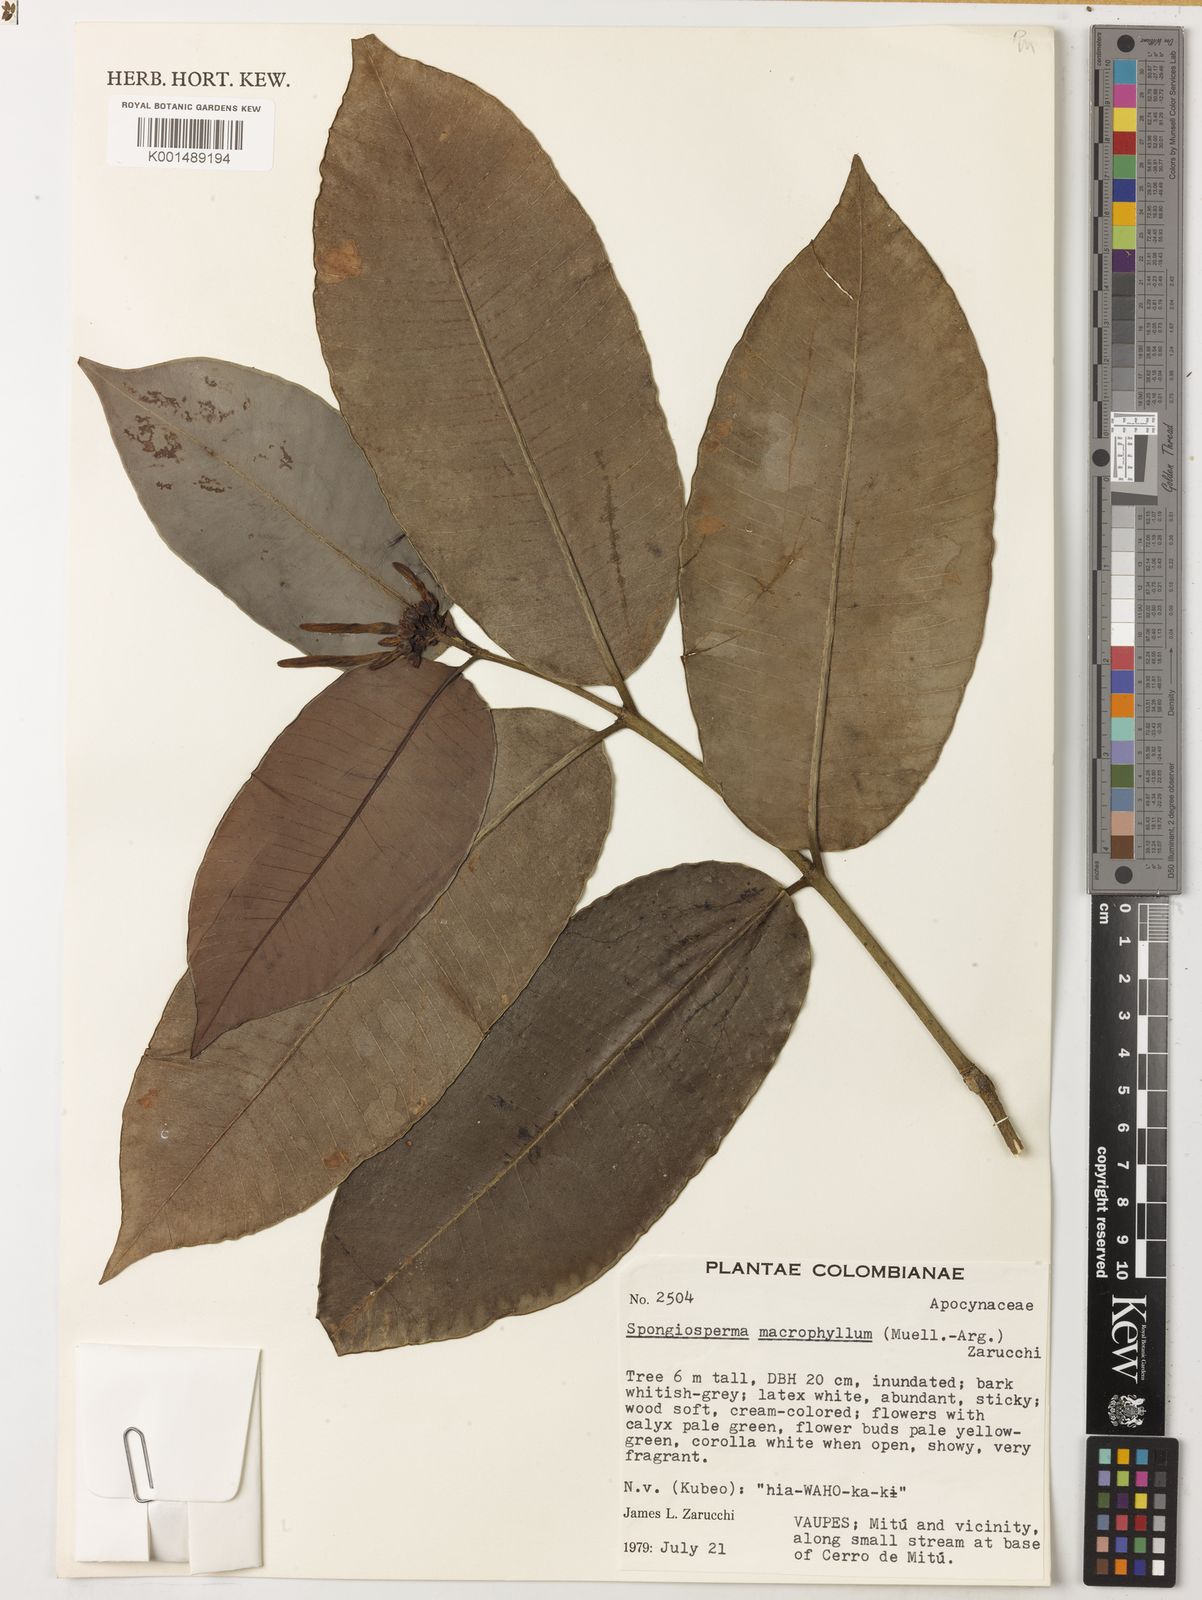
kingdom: Plantae
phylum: Tracheophyta
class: Magnoliopsida
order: Gentianales
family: Apocynaceae
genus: Spongiosperma
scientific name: Spongiosperma macrophyllum
